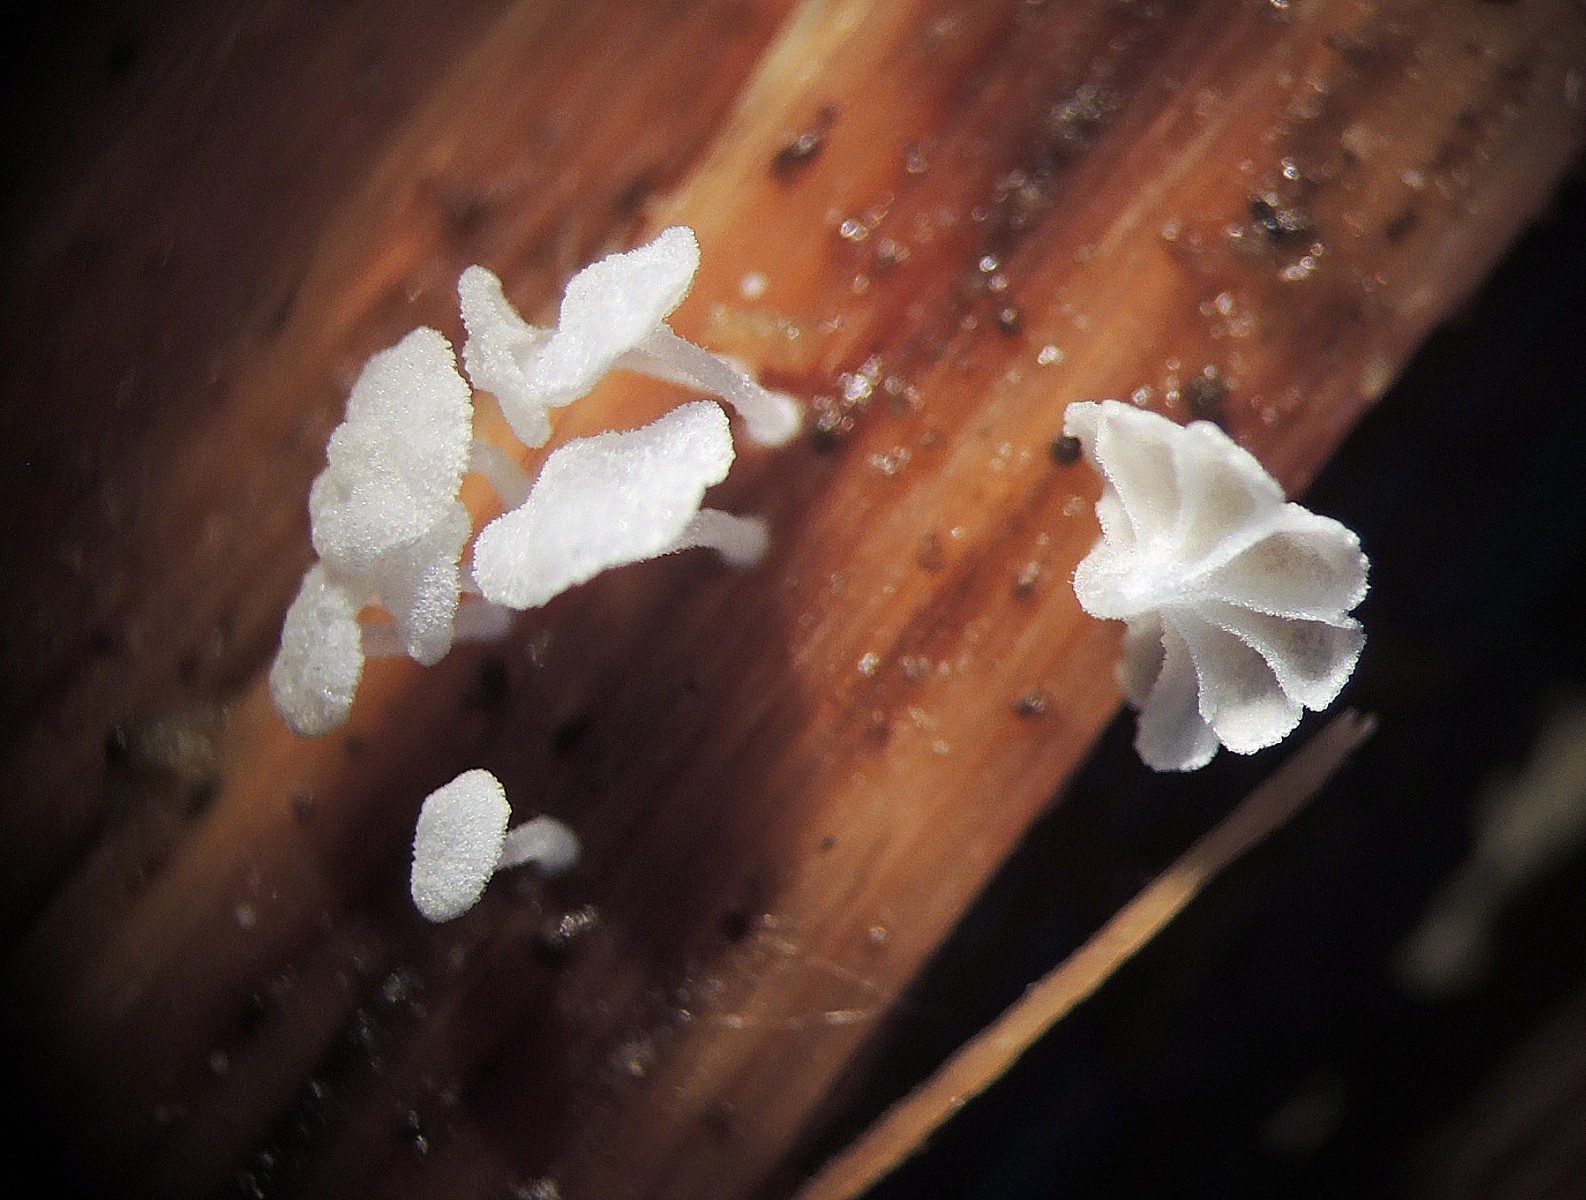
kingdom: Fungi
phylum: Basidiomycota
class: Agaricomycetes
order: Agaricales
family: Mycenaceae
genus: Resinomycena
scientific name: Resinomycena saccharifera
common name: sukkerhat
